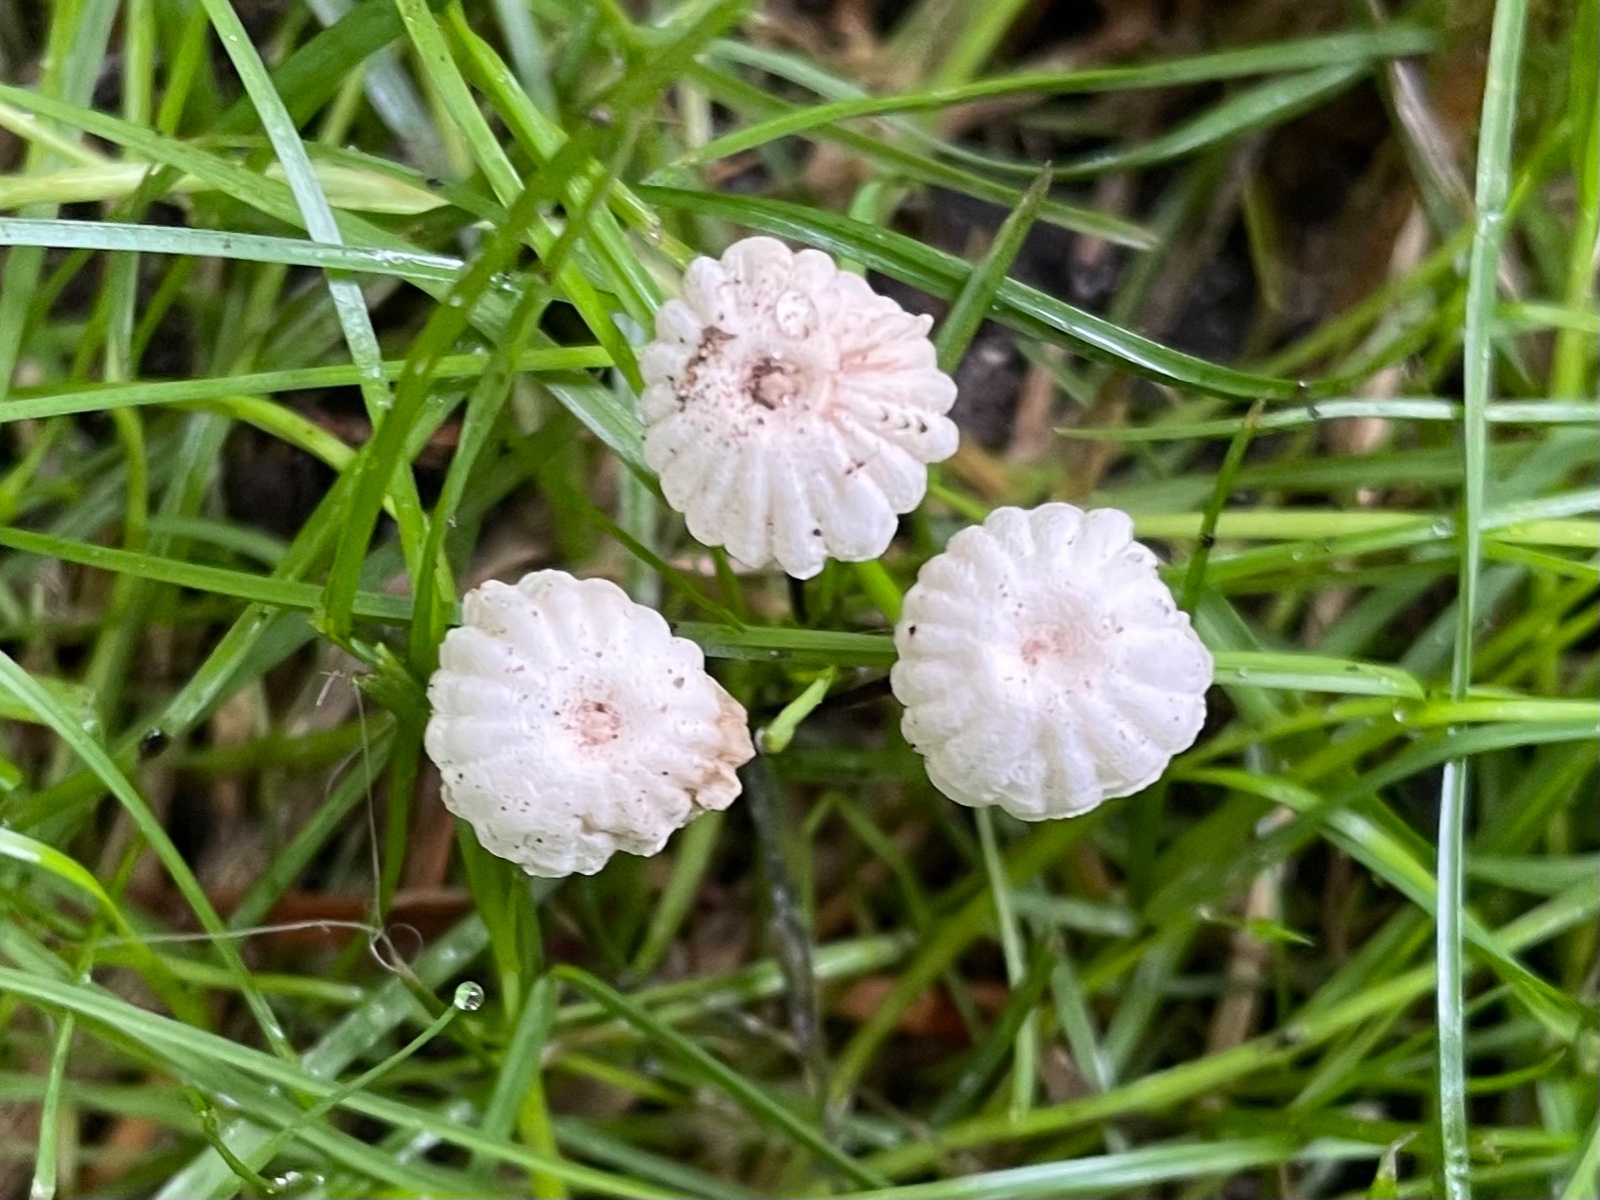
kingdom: Fungi
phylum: Basidiomycota
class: Agaricomycetes
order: Agaricales
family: Marasmiaceae
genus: Marasmius
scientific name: Marasmius rotula
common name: hjul-bruskhat
